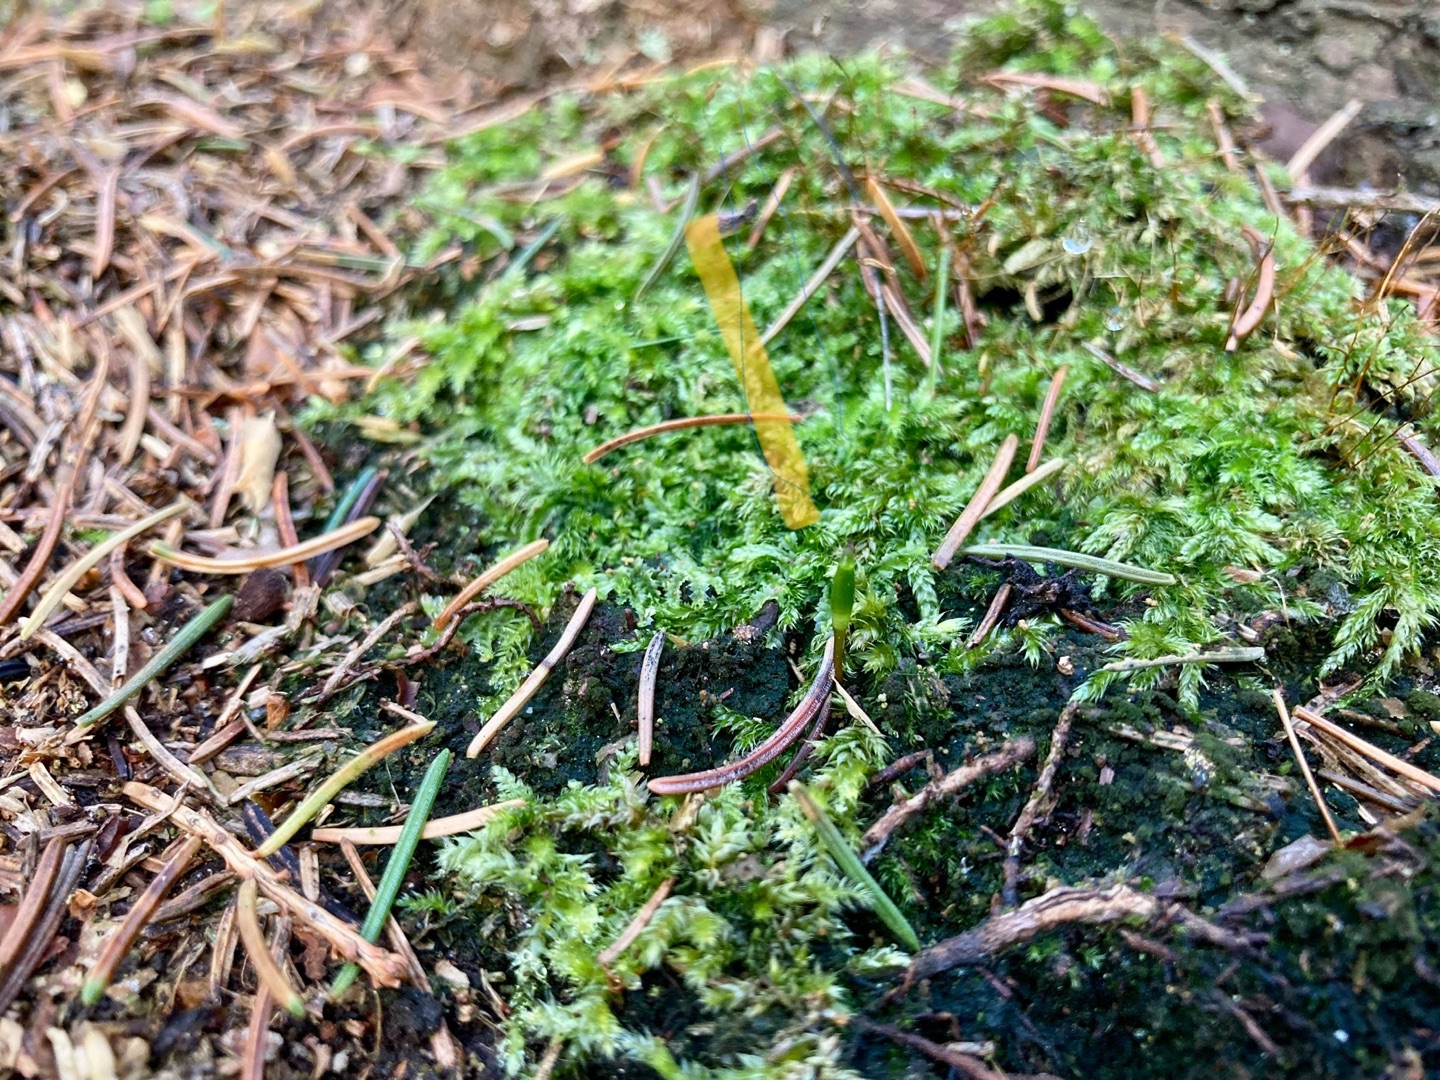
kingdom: Plantae
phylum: Bryophyta
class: Bryopsida
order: Buxbaumiales
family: Buxbaumiaceae
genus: Buxbaumia
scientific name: Buxbaumia viridis
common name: Grøn buxbaumia
